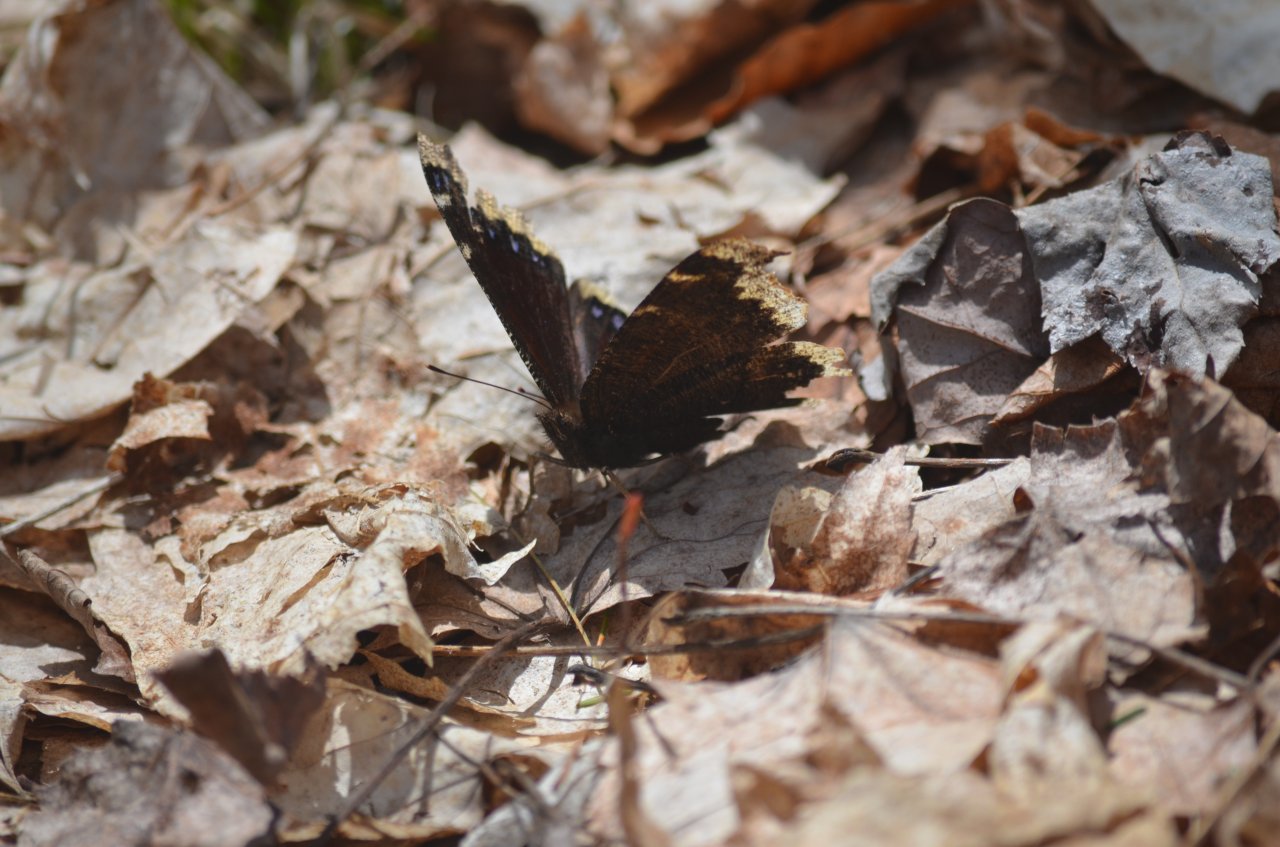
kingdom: Animalia
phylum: Arthropoda
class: Insecta
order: Lepidoptera
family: Nymphalidae
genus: Nymphalis
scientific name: Nymphalis antiopa
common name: Mourning Cloak
